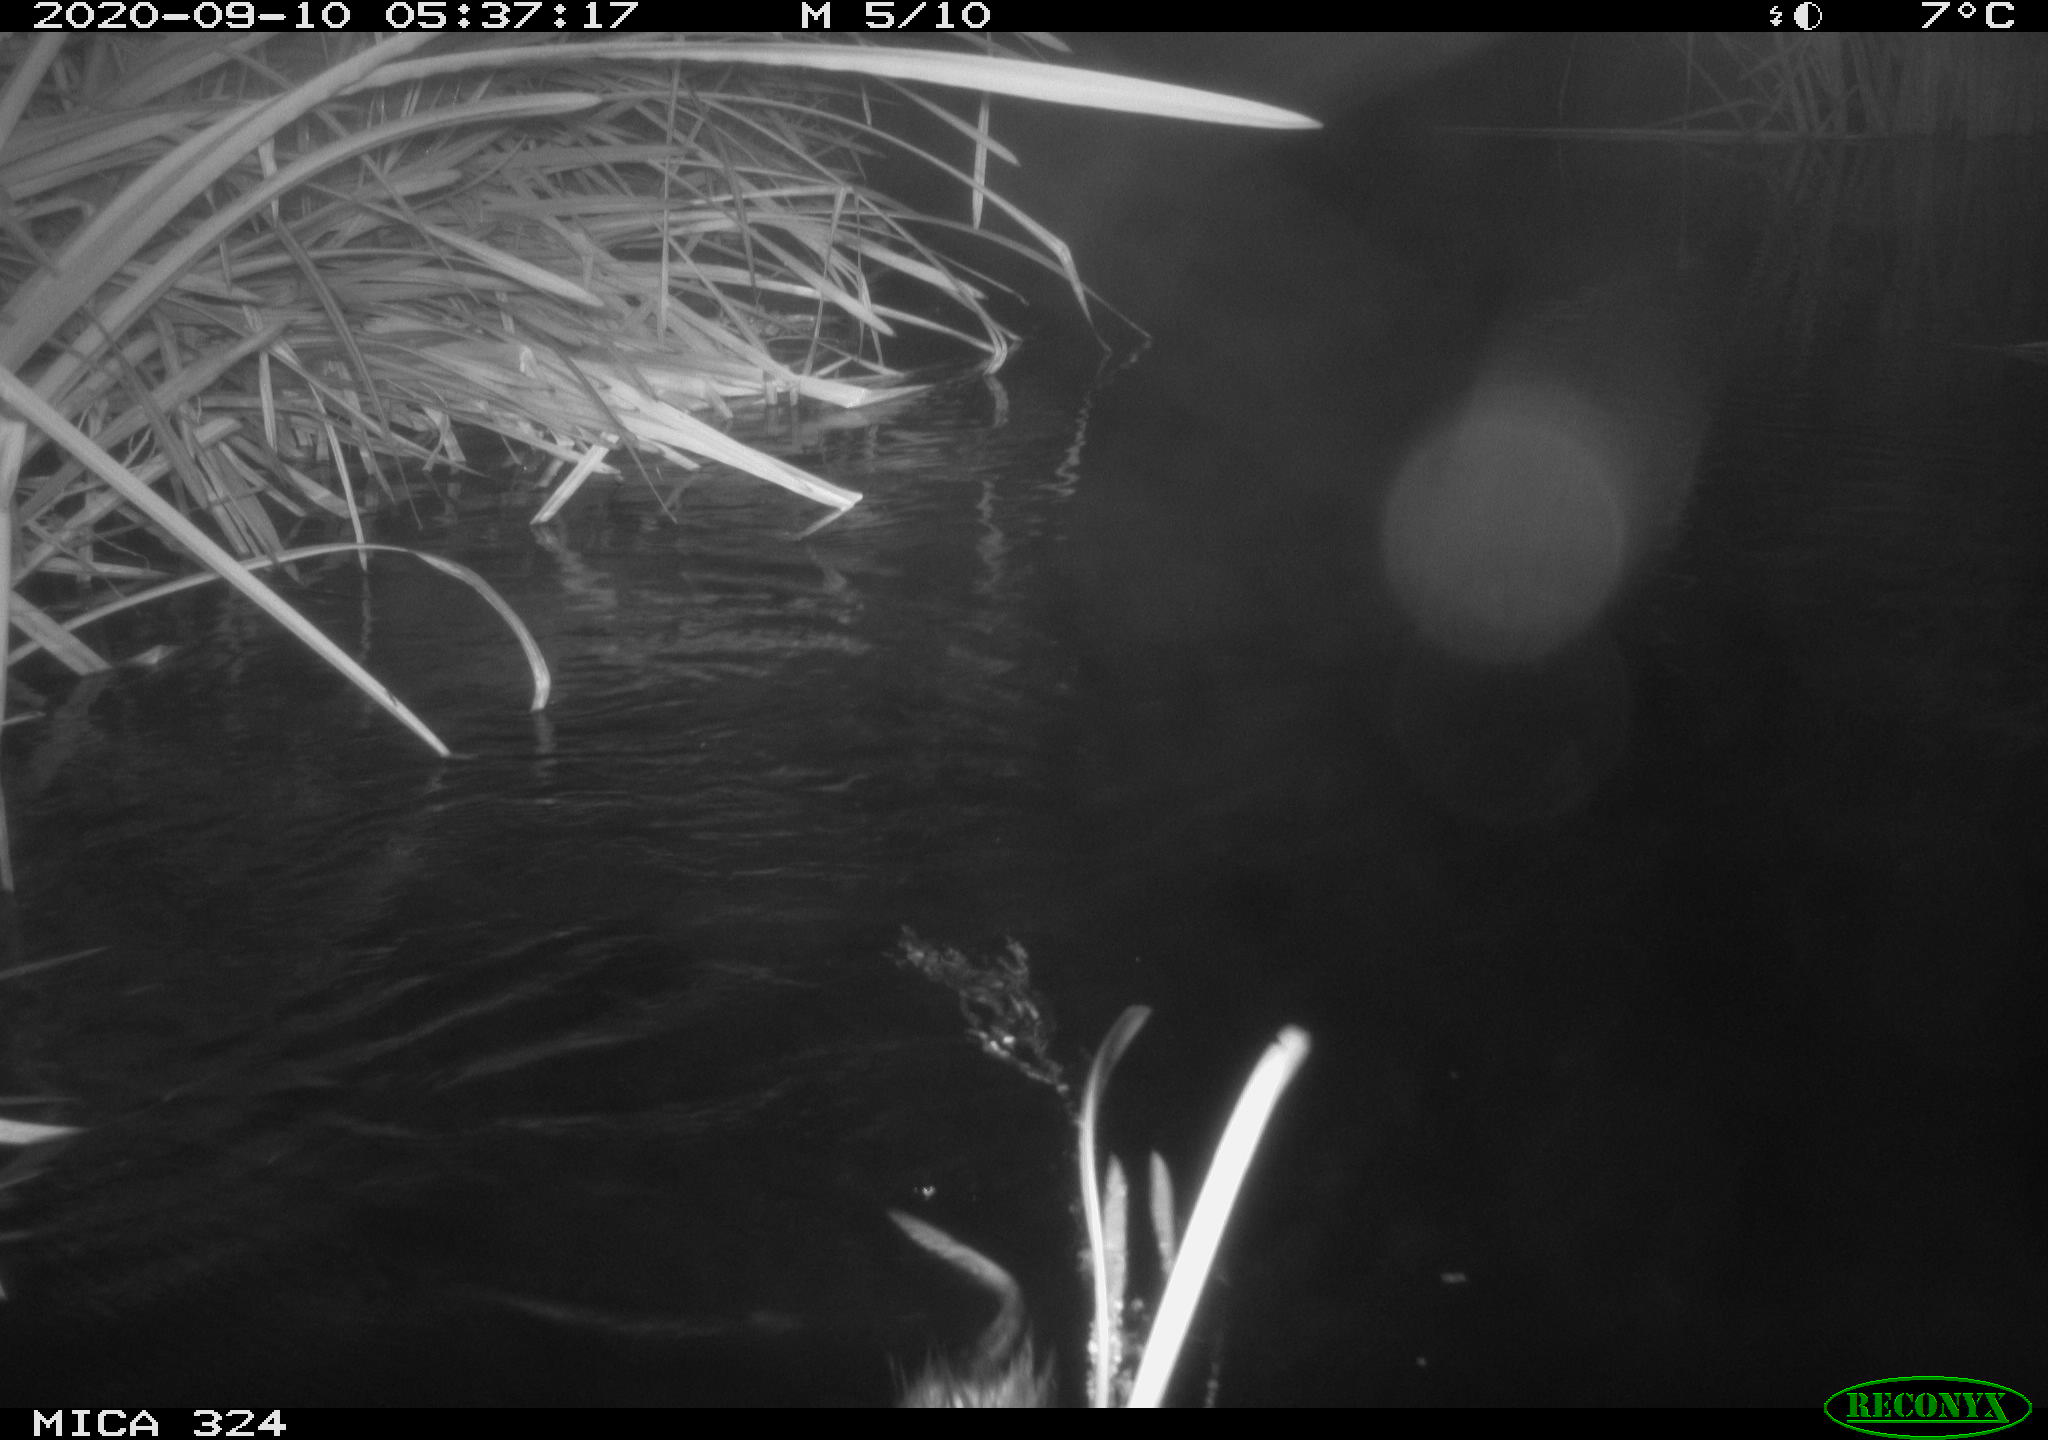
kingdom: Animalia
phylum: Chordata
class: Mammalia
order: Rodentia
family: Cricetidae
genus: Ondatra
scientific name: Ondatra zibethicus
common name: Muskrat
